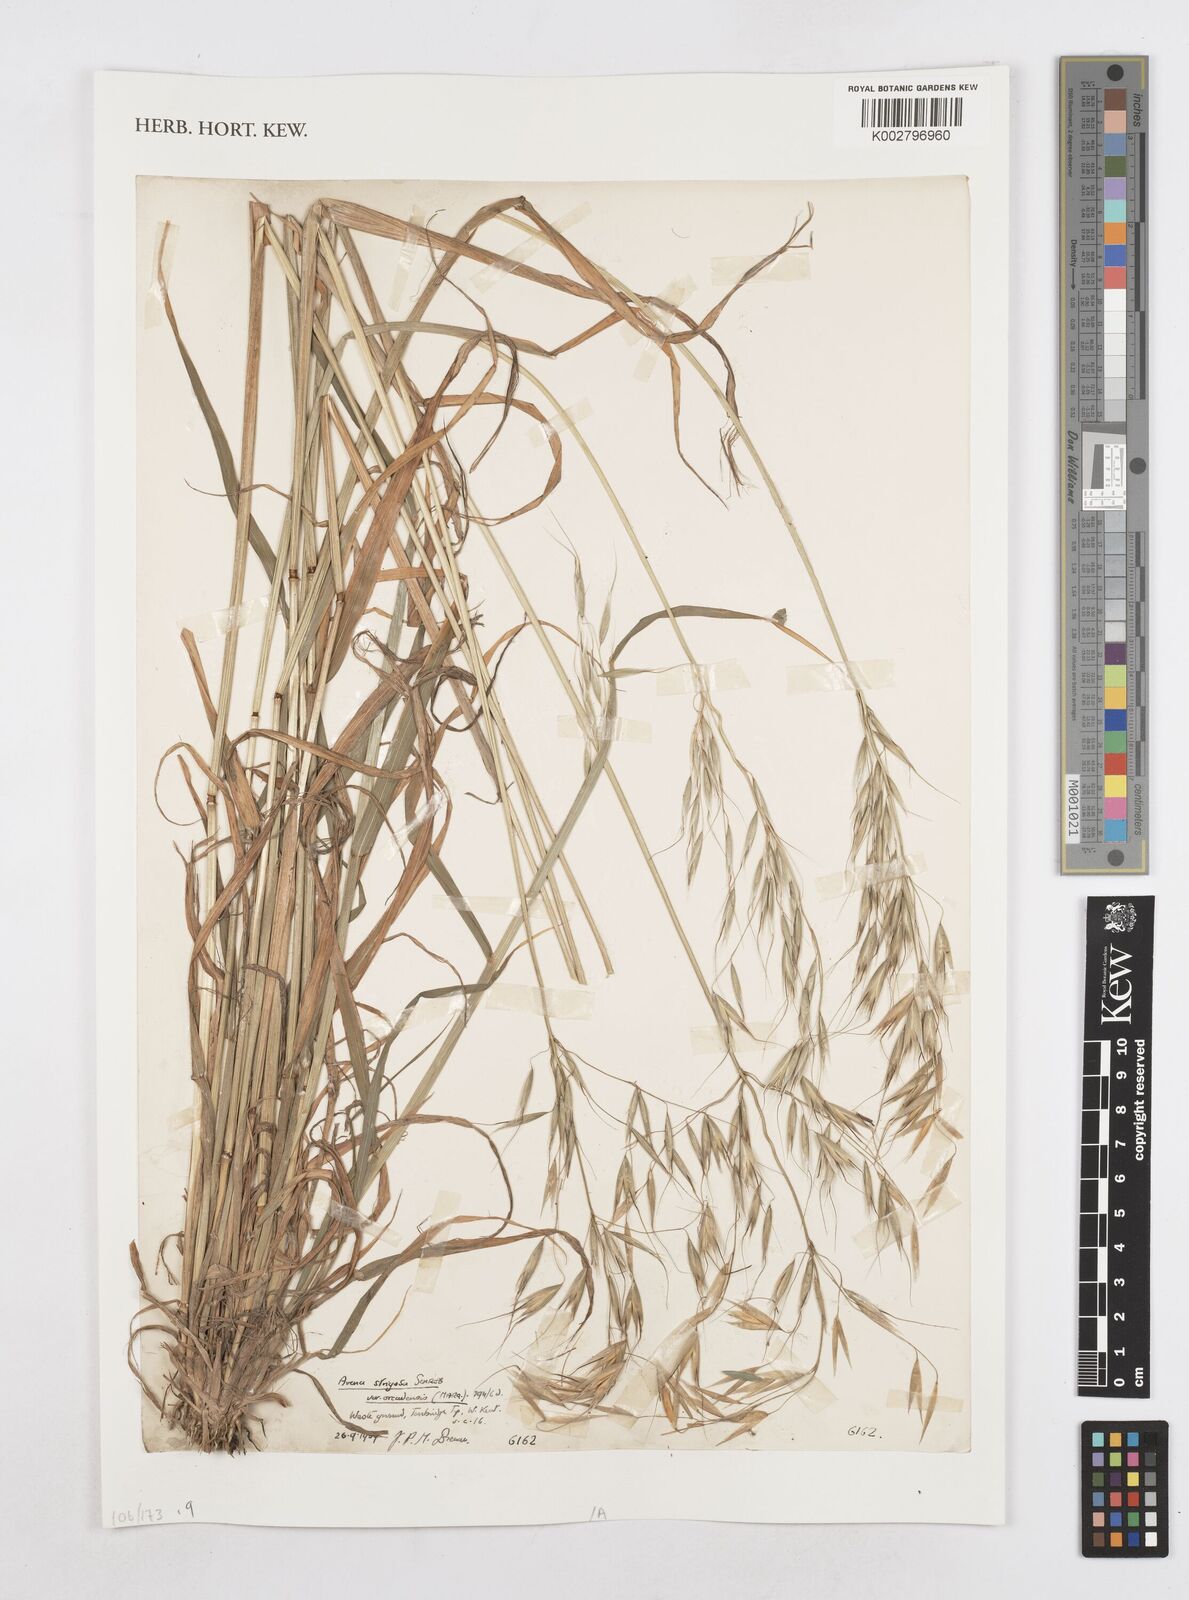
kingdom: Plantae
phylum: Tracheophyta
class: Liliopsida
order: Poales
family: Poaceae
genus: Avena
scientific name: Avena strigosa
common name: Bristle oat
